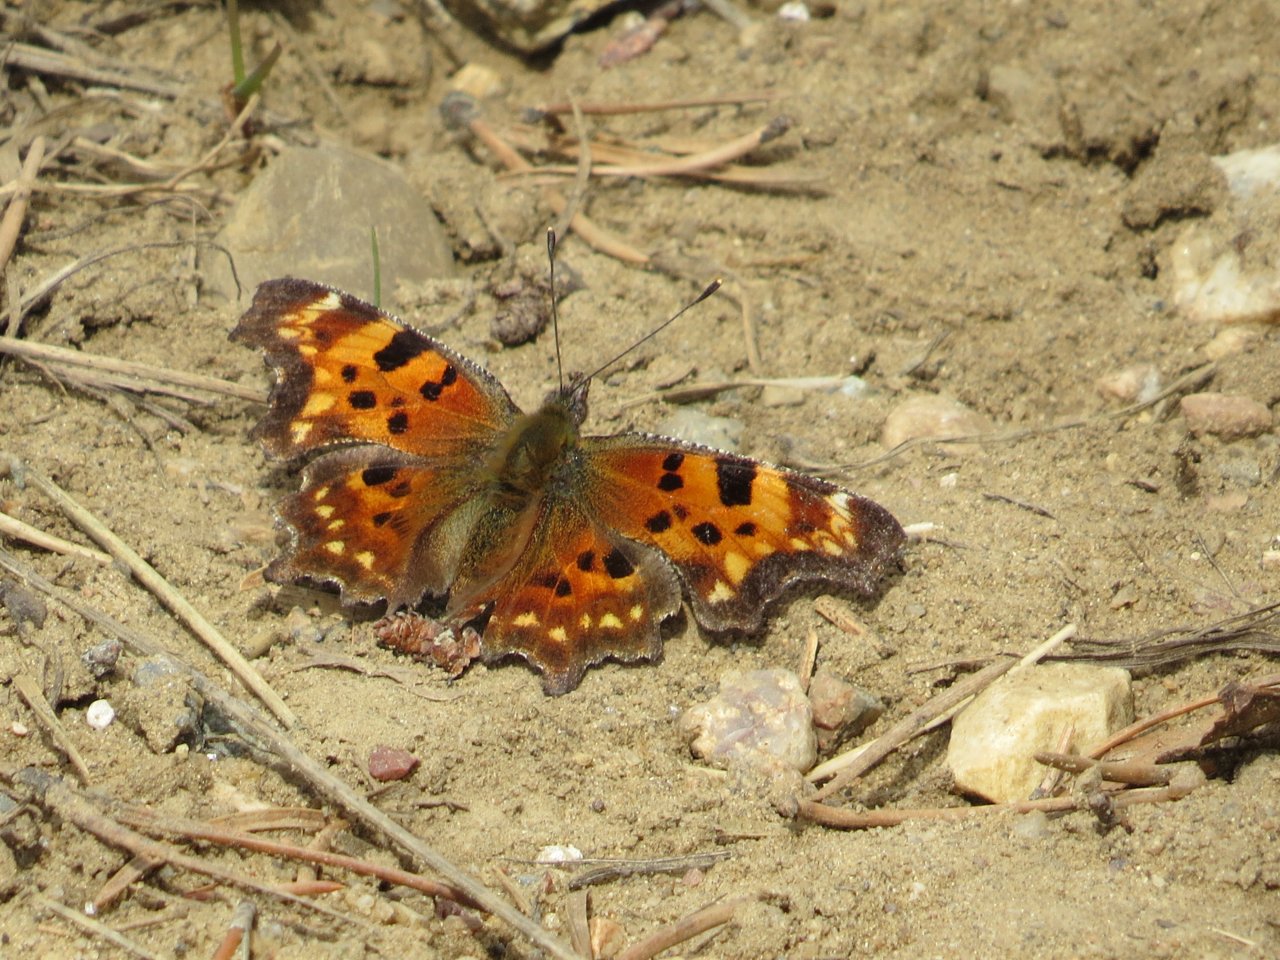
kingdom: Animalia
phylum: Arthropoda
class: Insecta
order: Lepidoptera
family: Nymphalidae
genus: Polygonia
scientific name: Polygonia faunus
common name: Green Comma
